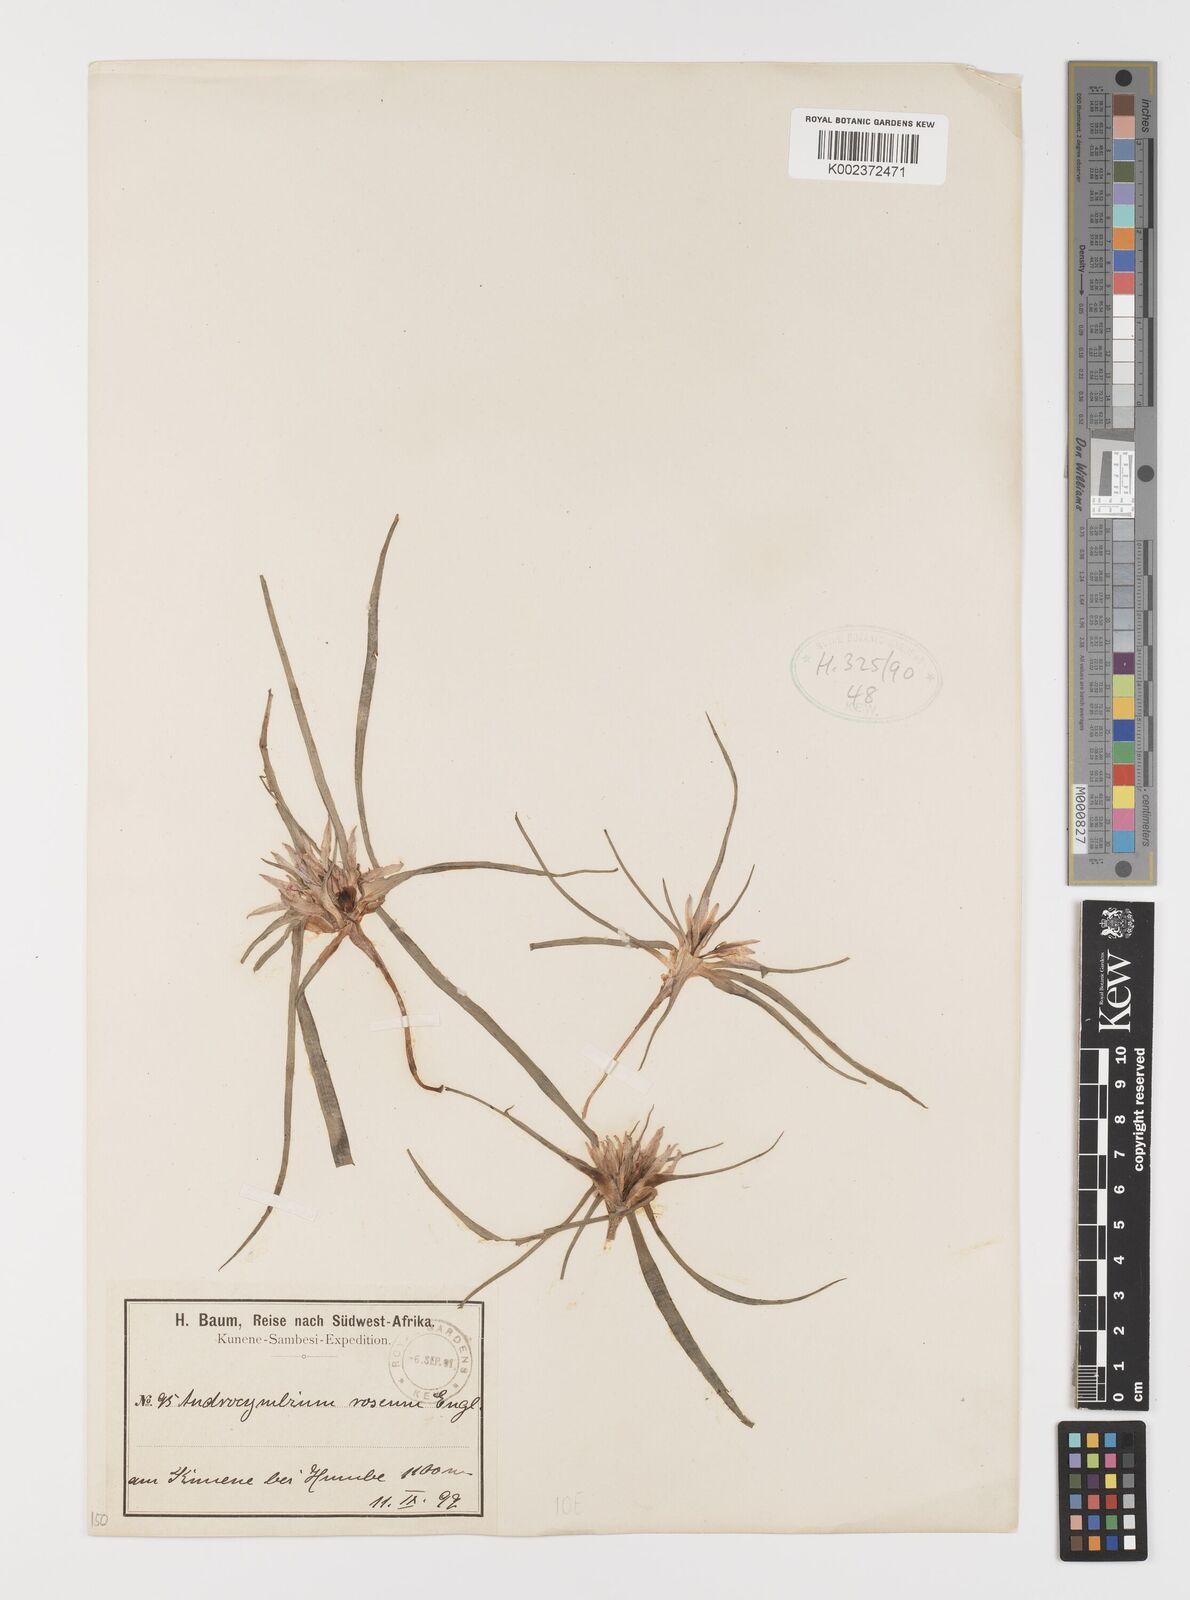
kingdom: Plantae
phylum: Tracheophyta
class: Liliopsida
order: Liliales
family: Colchicaceae
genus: Colchicum
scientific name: Colchicum roseum
